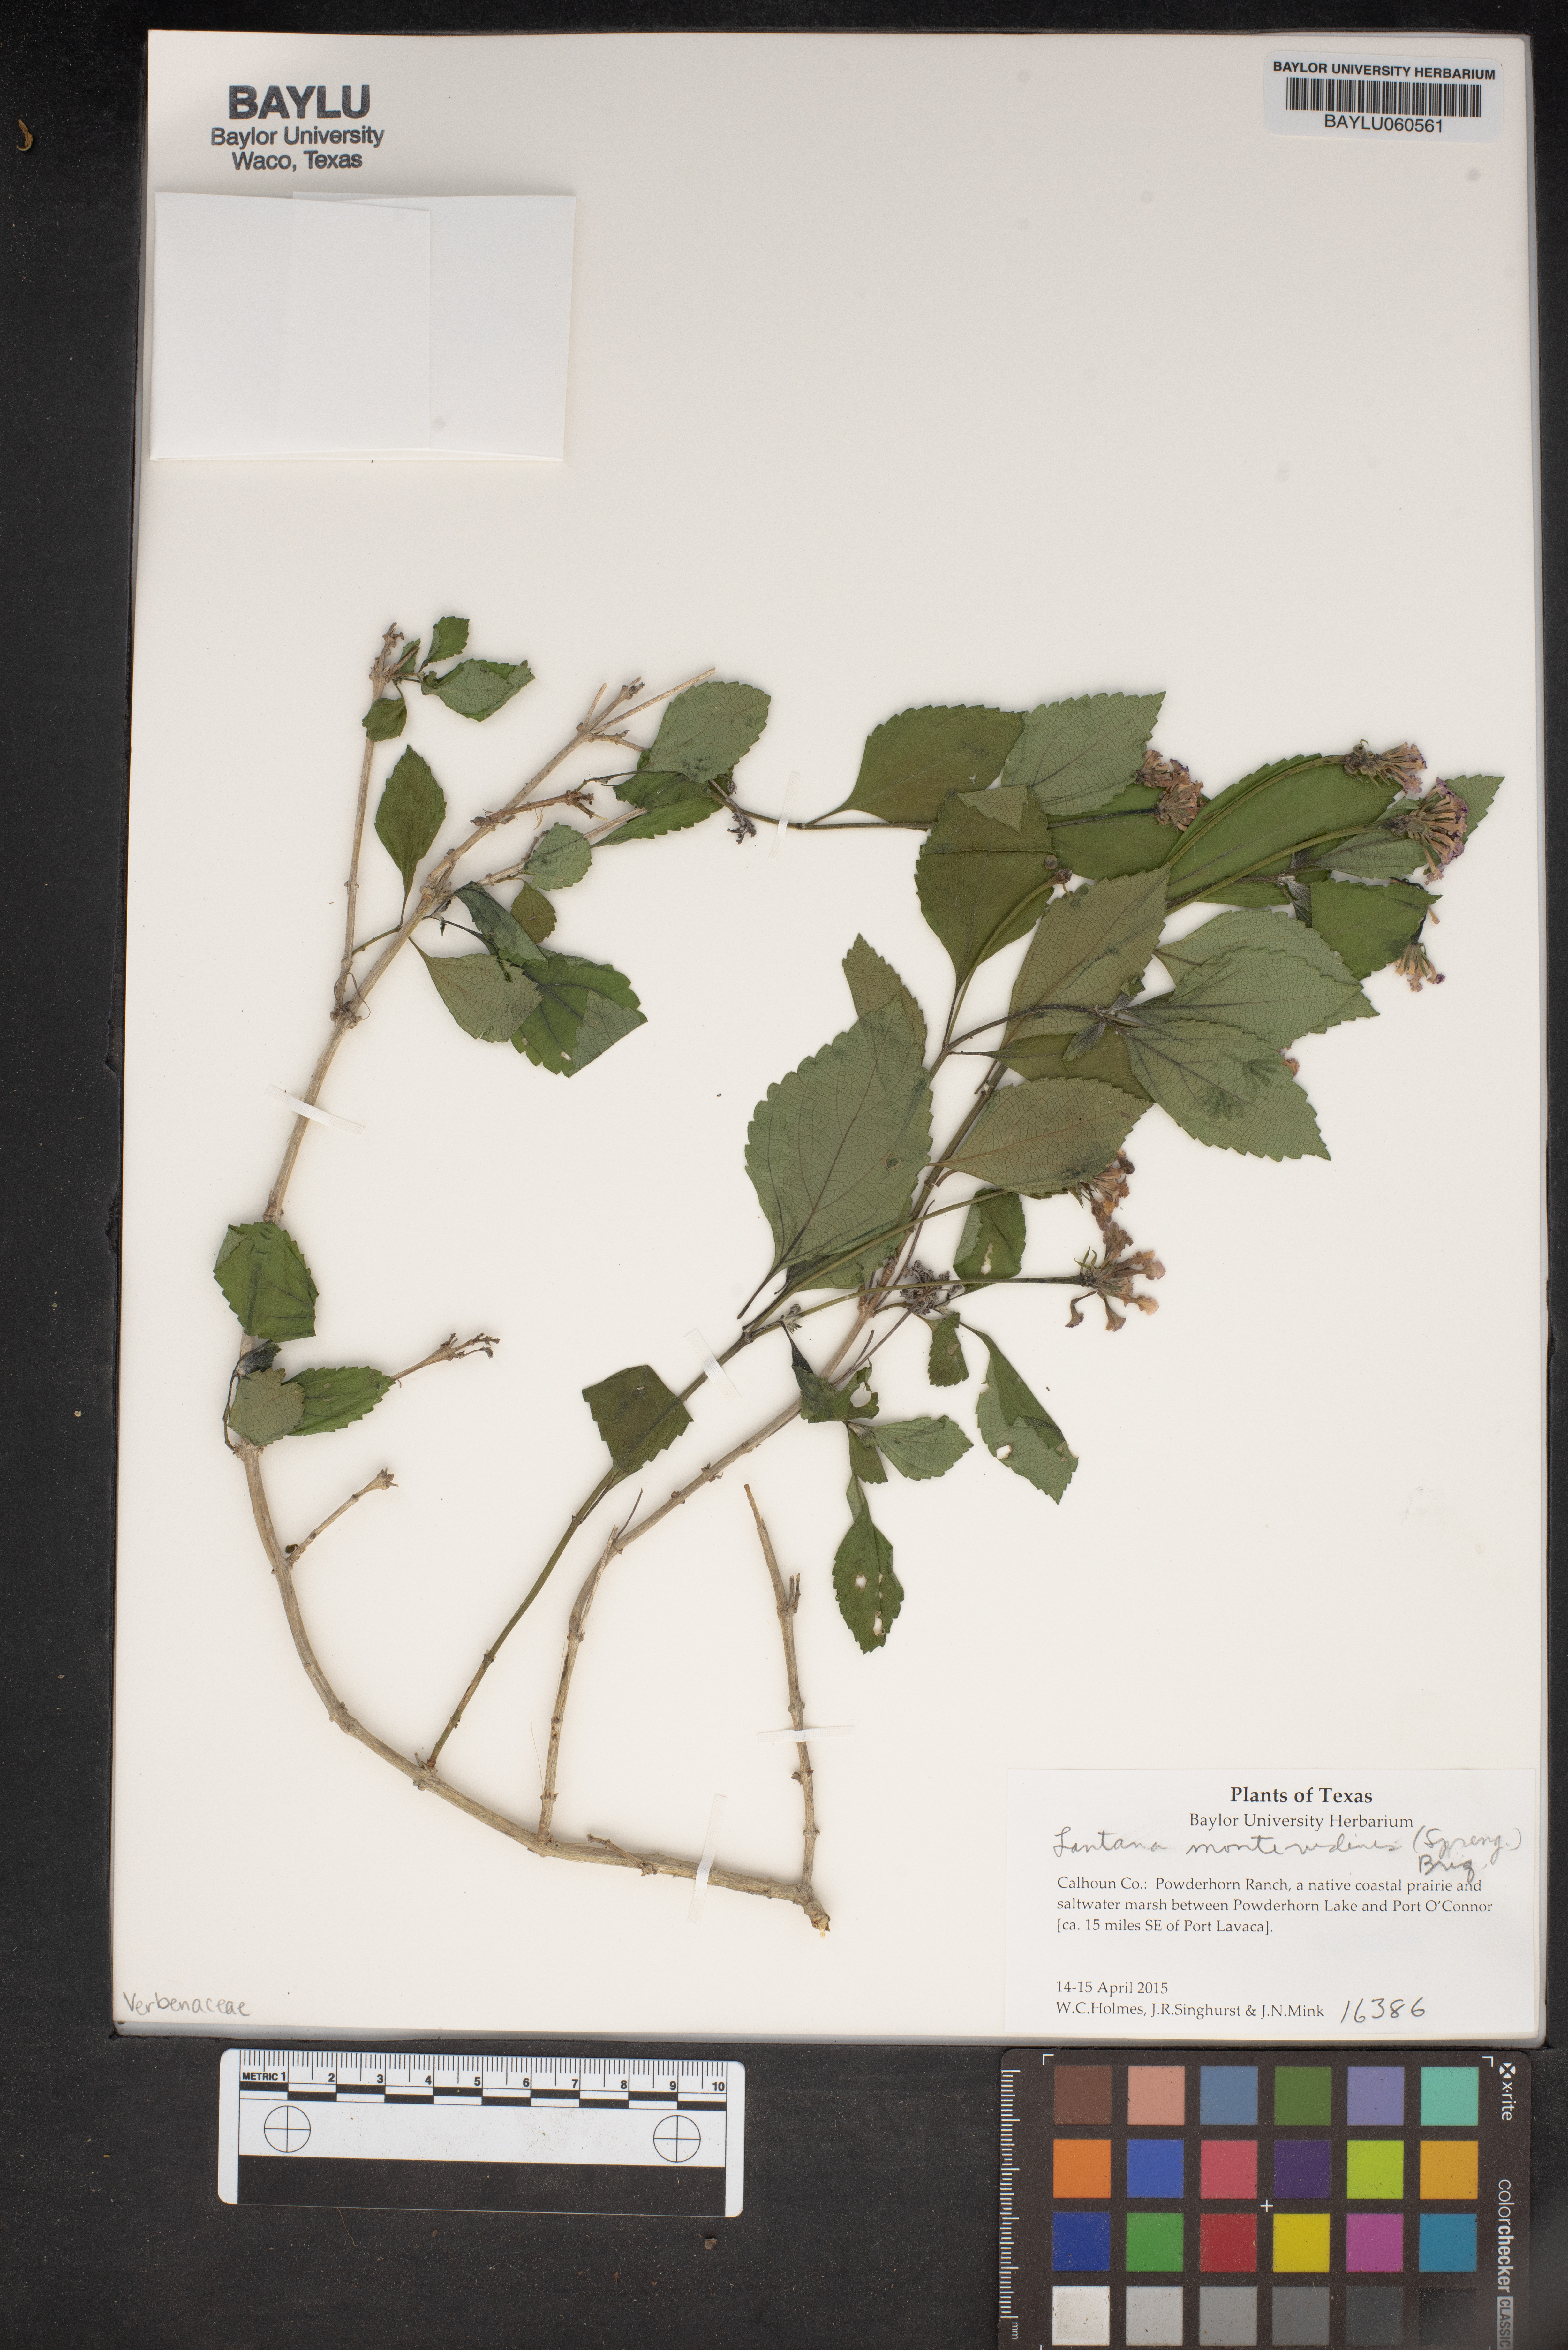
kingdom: Plantae
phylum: Tracheophyta
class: Magnoliopsida
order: Lamiales
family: Verbenaceae
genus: Lantana
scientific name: Lantana montevidensis
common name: Trailing shrubverbena
